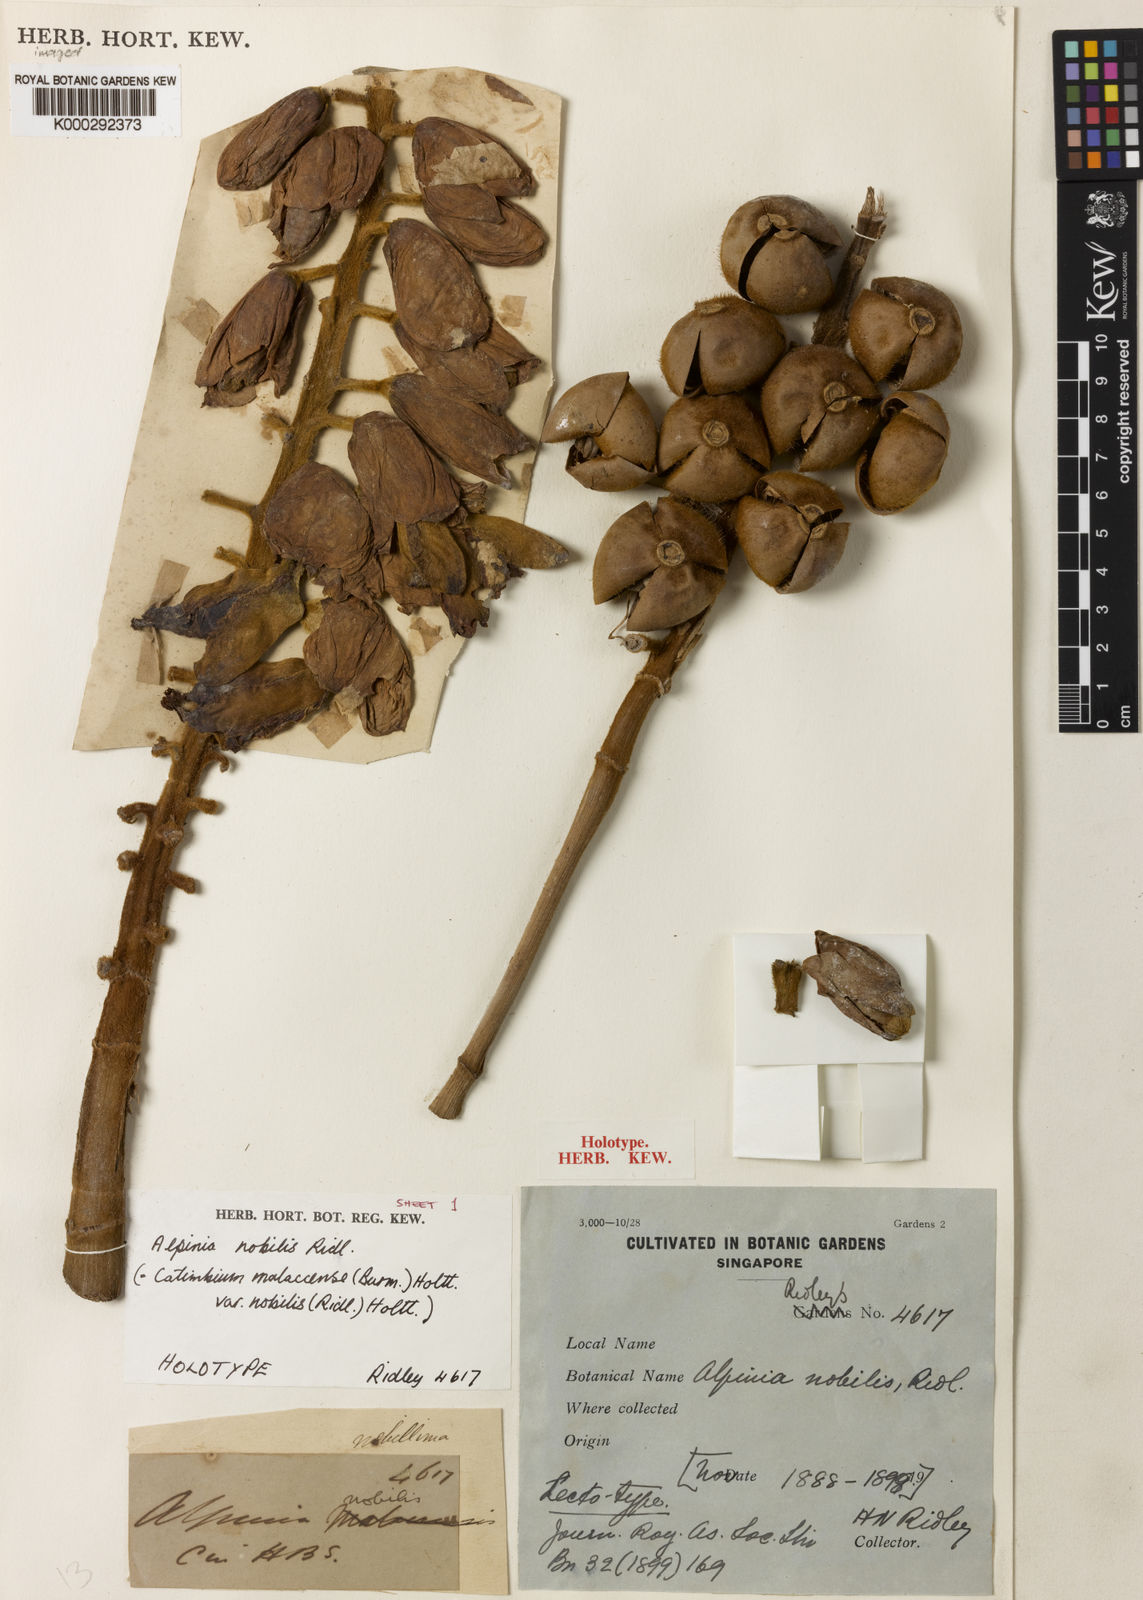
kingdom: Plantae
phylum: Tracheophyta
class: Liliopsida
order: Zingiberales
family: Zingiberaceae
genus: Alpinia
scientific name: Alpinia nobilis
